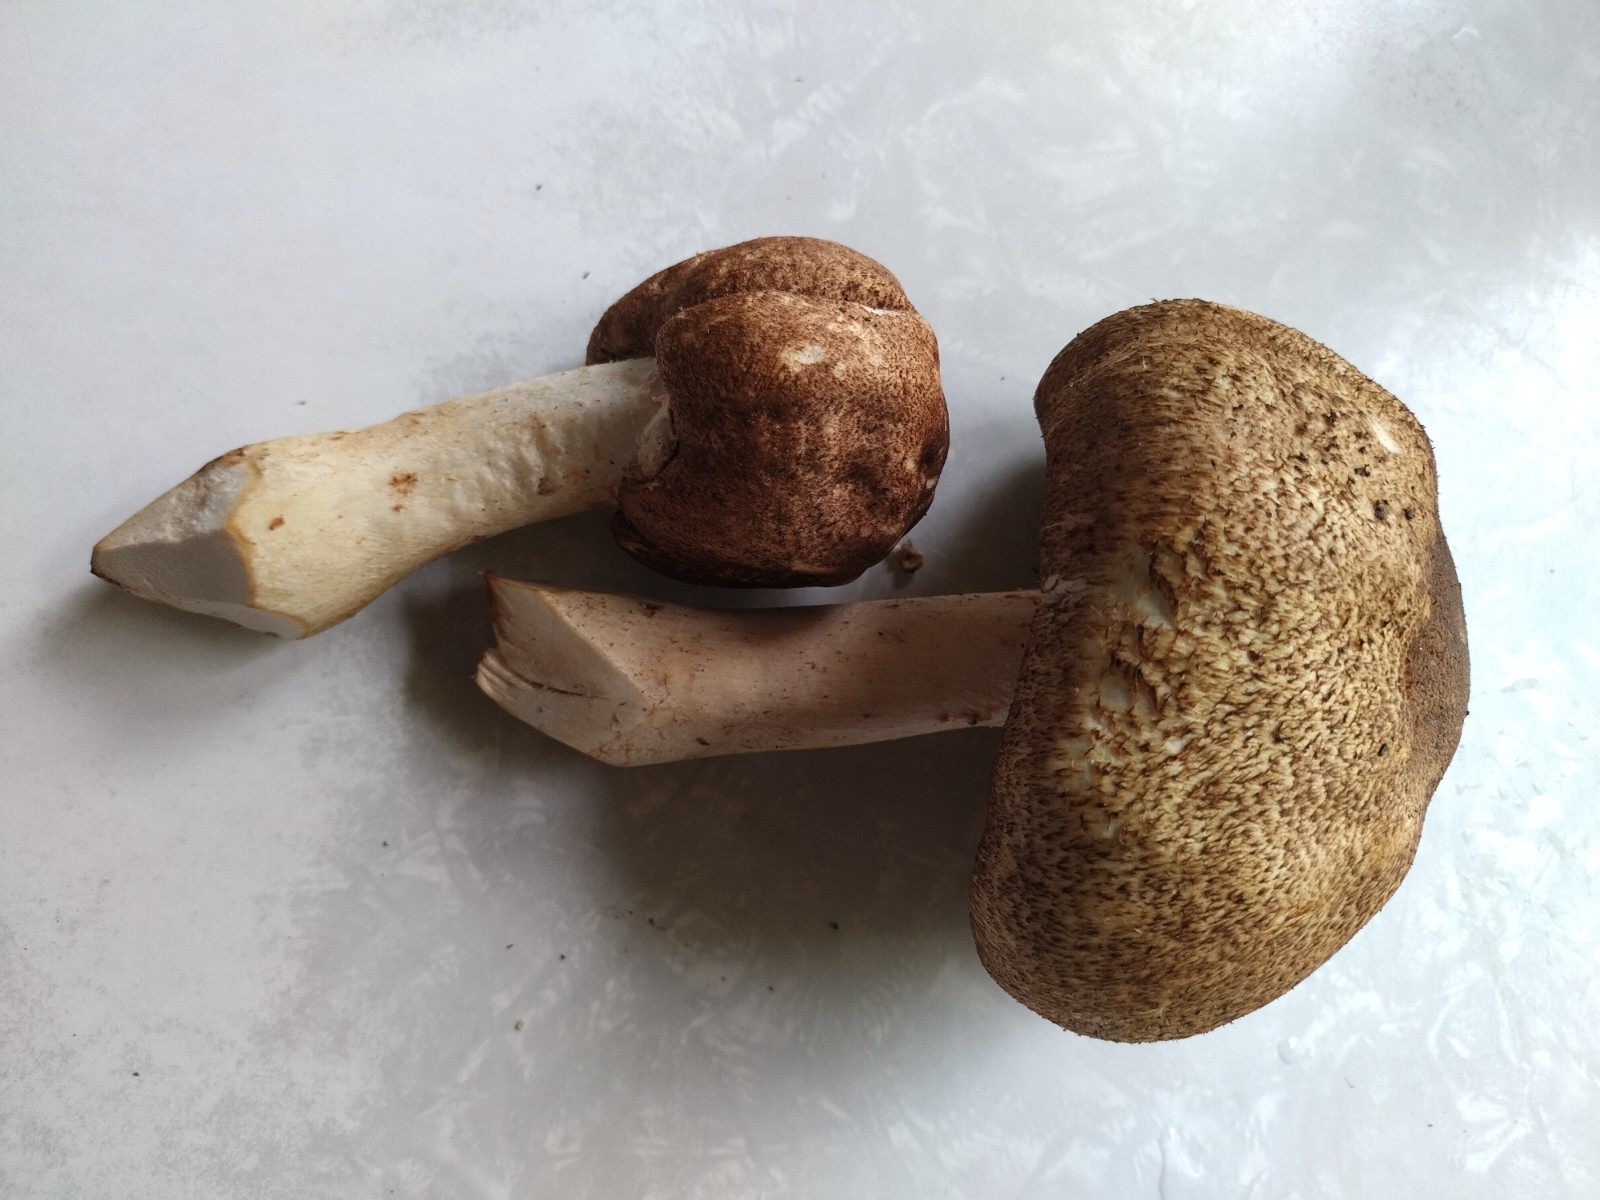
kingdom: Fungi
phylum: Basidiomycota
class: Agaricomycetes
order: Agaricales
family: Agaricaceae
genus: Agaricus
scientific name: Agaricus augustus
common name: prægtig champignon
